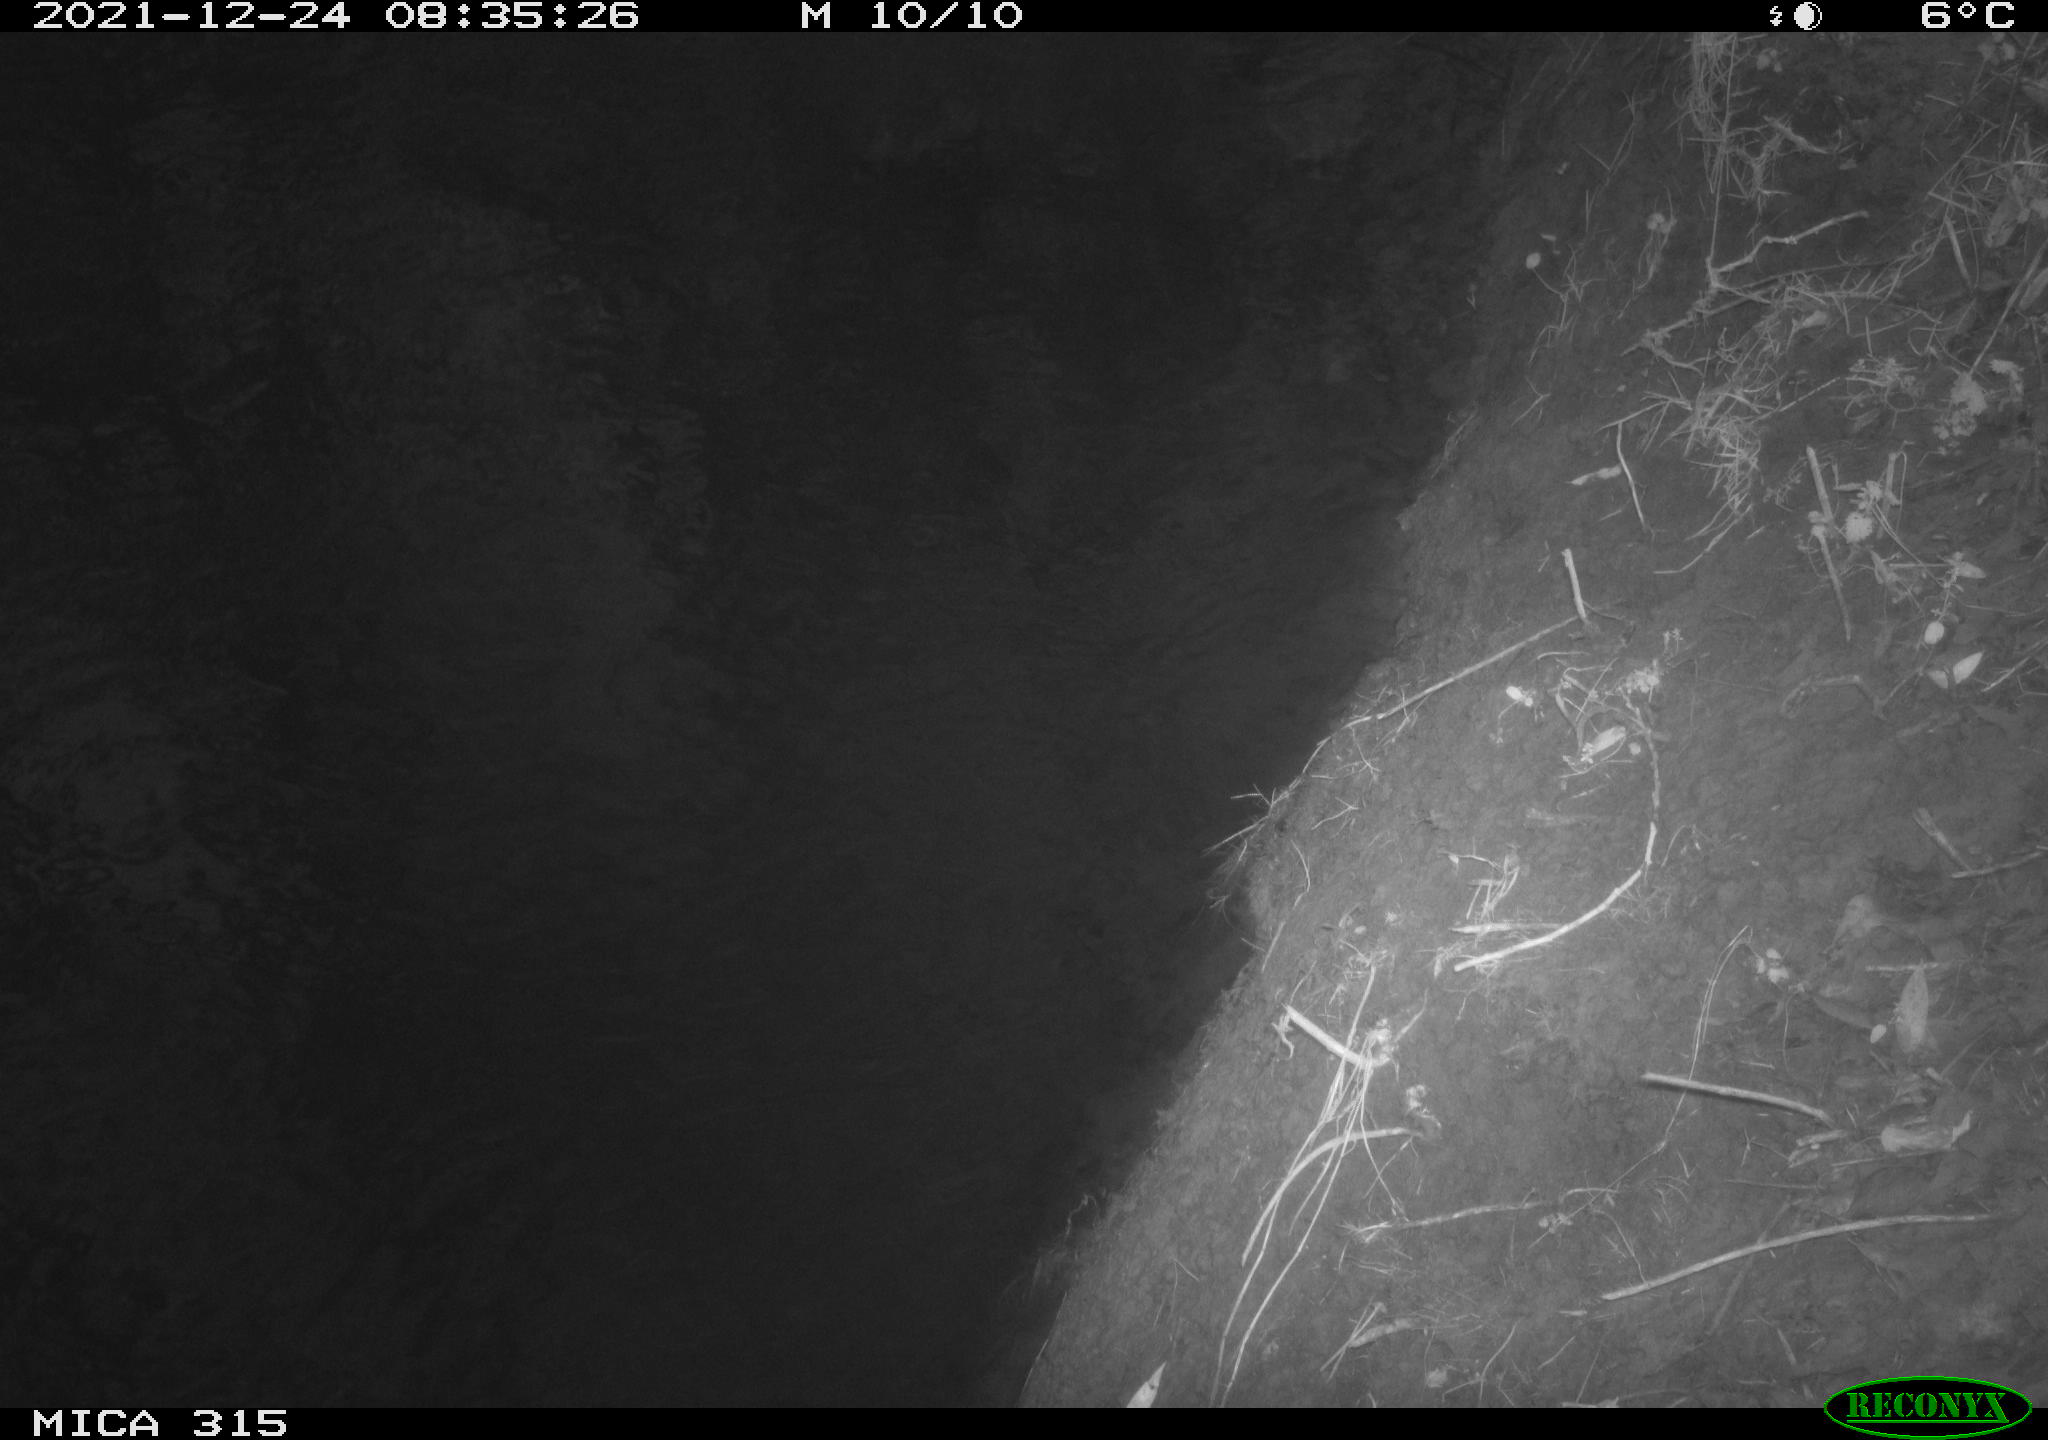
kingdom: Animalia
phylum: Chordata
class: Aves
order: Gruiformes
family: Rallidae
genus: Gallinula
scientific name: Gallinula chloropus
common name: Common moorhen
